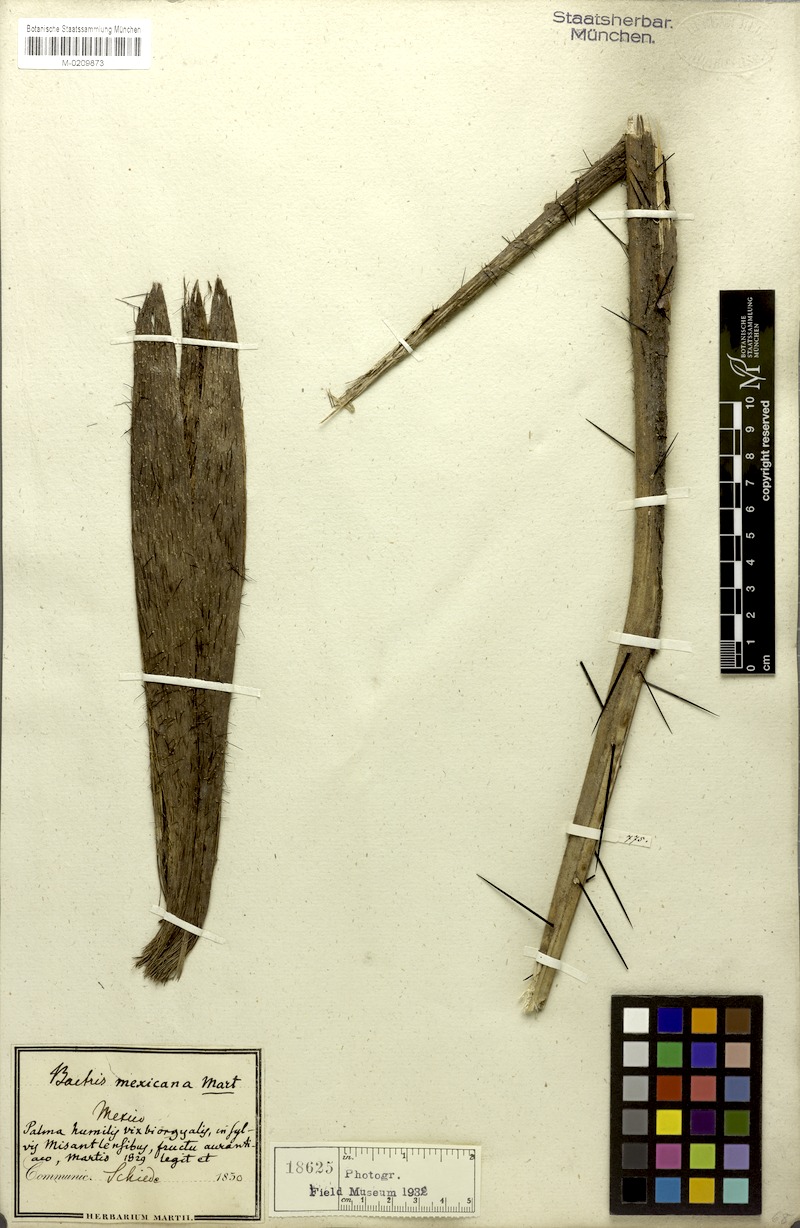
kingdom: Plantae
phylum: Tracheophyta
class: Liliopsida
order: Arecales
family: Arecaceae
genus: Bactris
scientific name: Bactris mexicana
